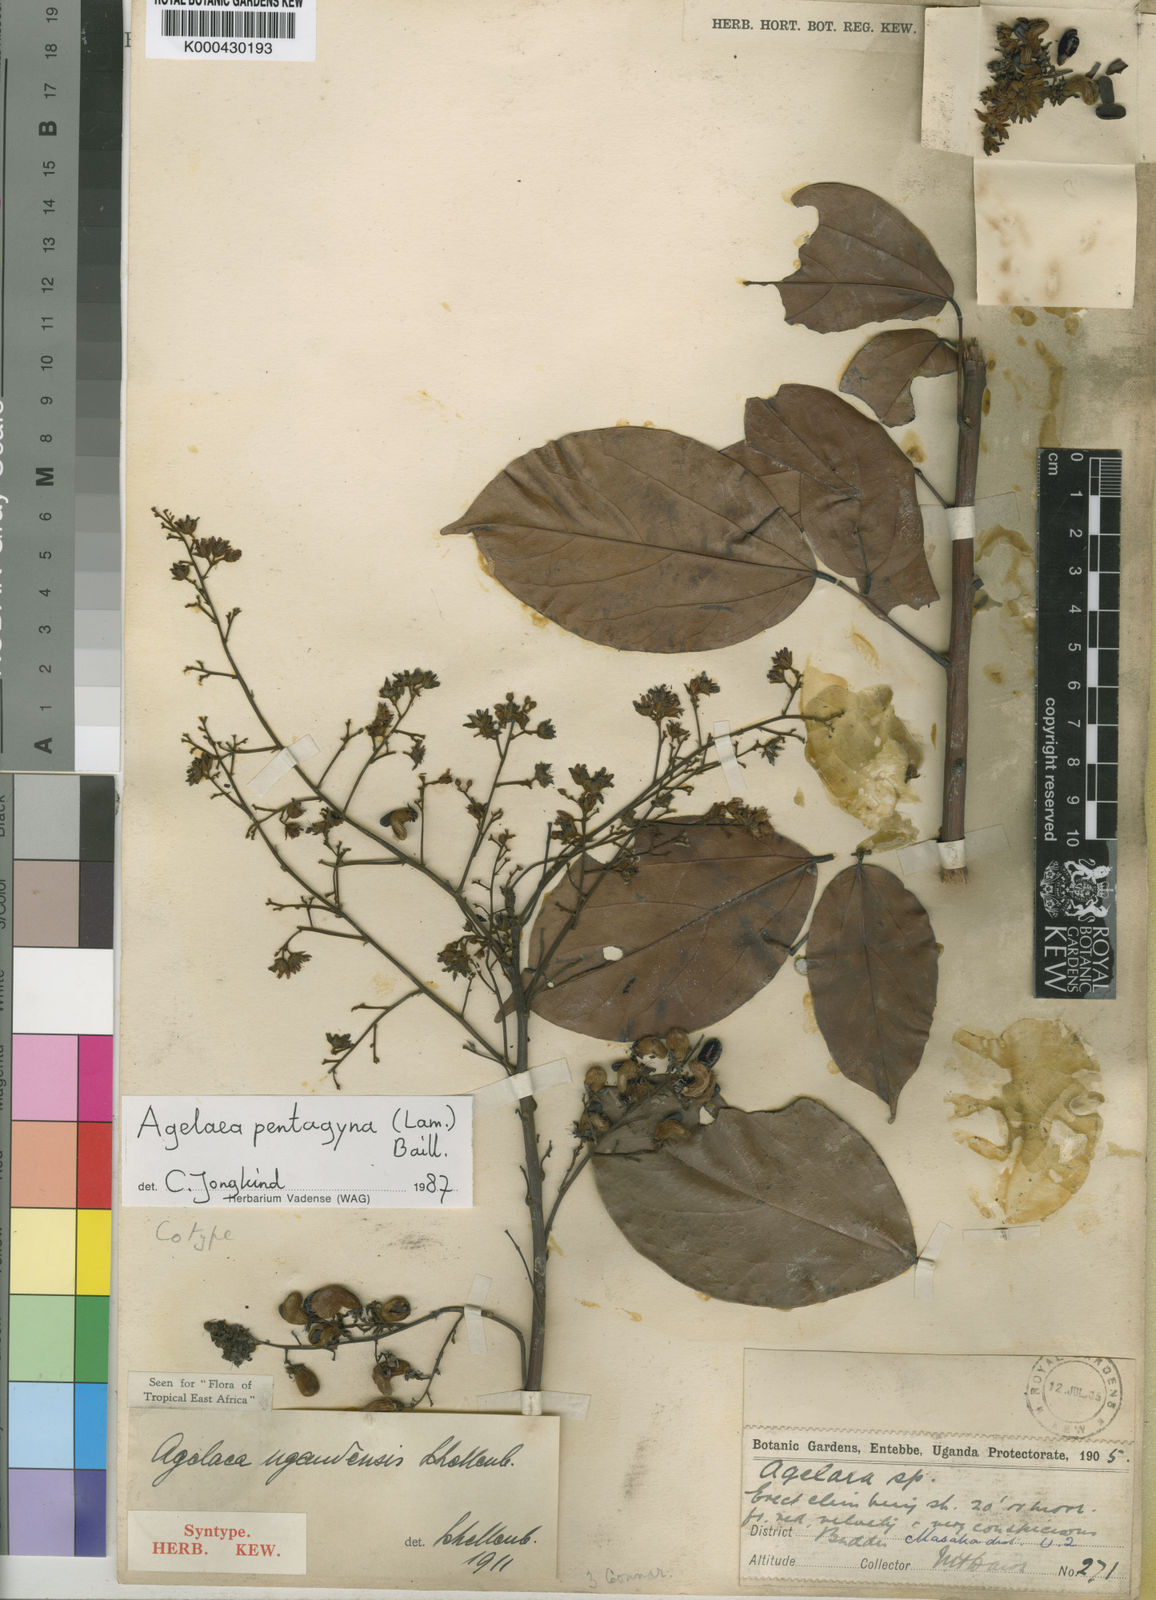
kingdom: Plantae
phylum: Tracheophyta
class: Magnoliopsida
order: Oxalidales
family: Connaraceae
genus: Agelaea
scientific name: Agelaea pentagyna
